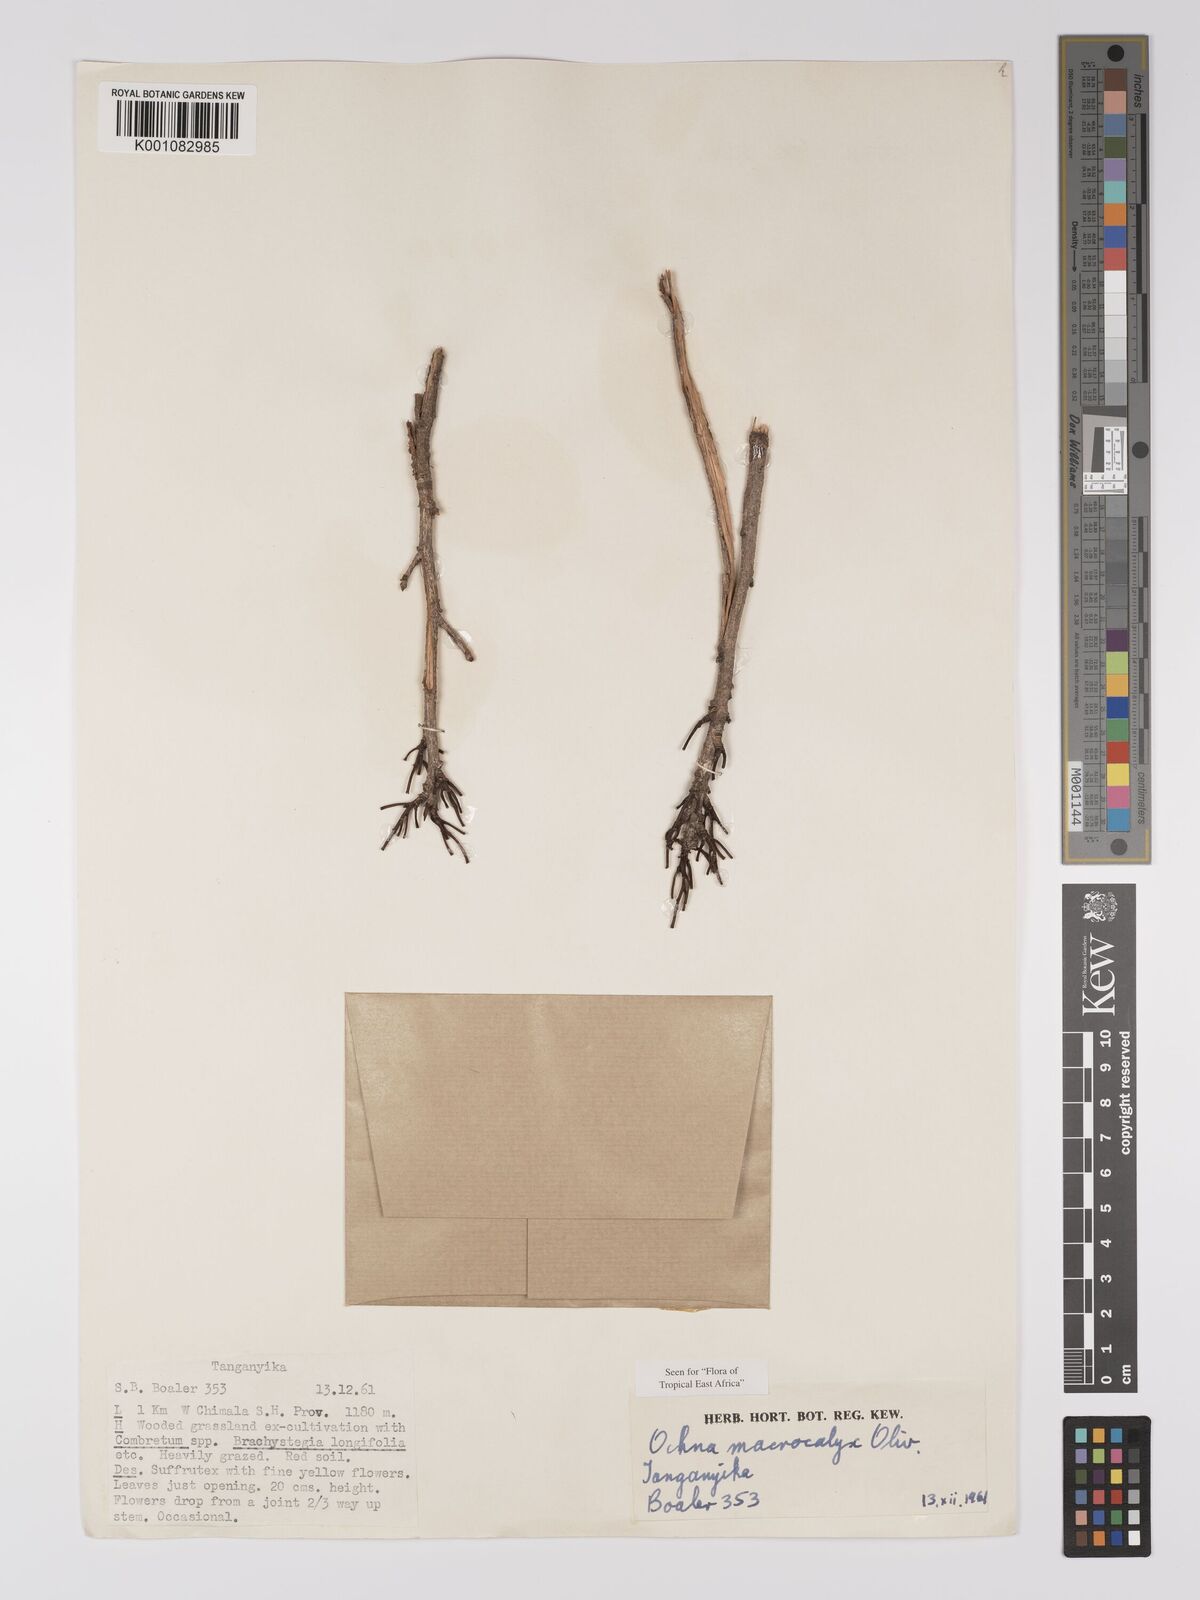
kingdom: Plantae
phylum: Tracheophyta
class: Magnoliopsida
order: Malpighiales
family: Ochnaceae
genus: Ochna
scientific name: Ochna macrocalyx
